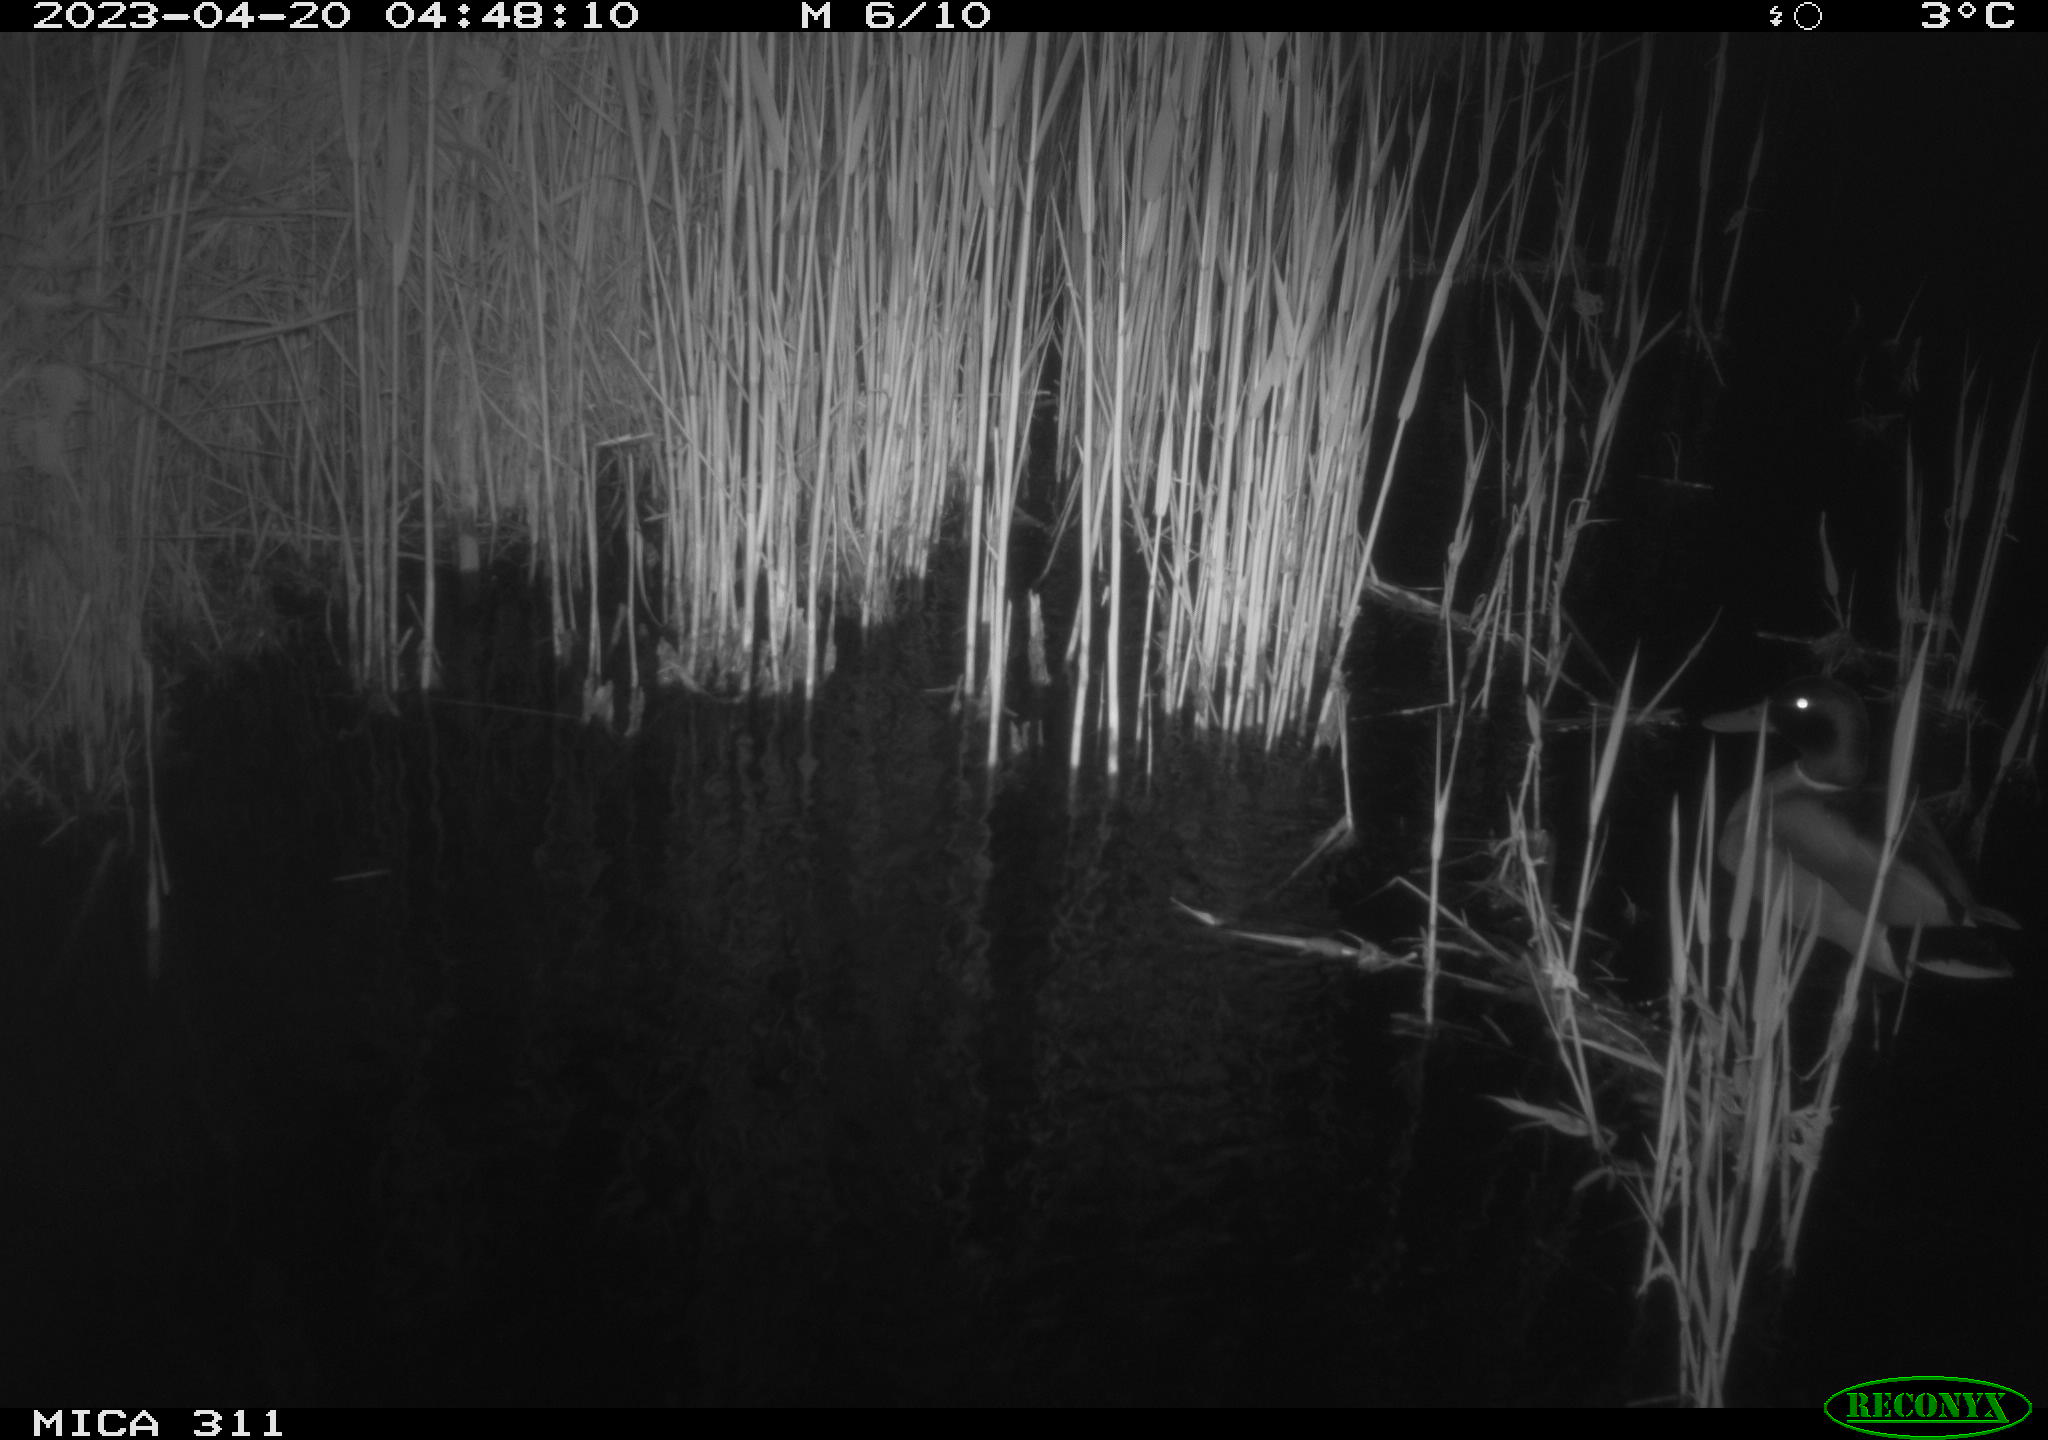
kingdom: Animalia
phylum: Chordata
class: Aves
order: Gruiformes
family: Rallidae
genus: Gallinula
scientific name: Gallinula chloropus
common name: Common moorhen
